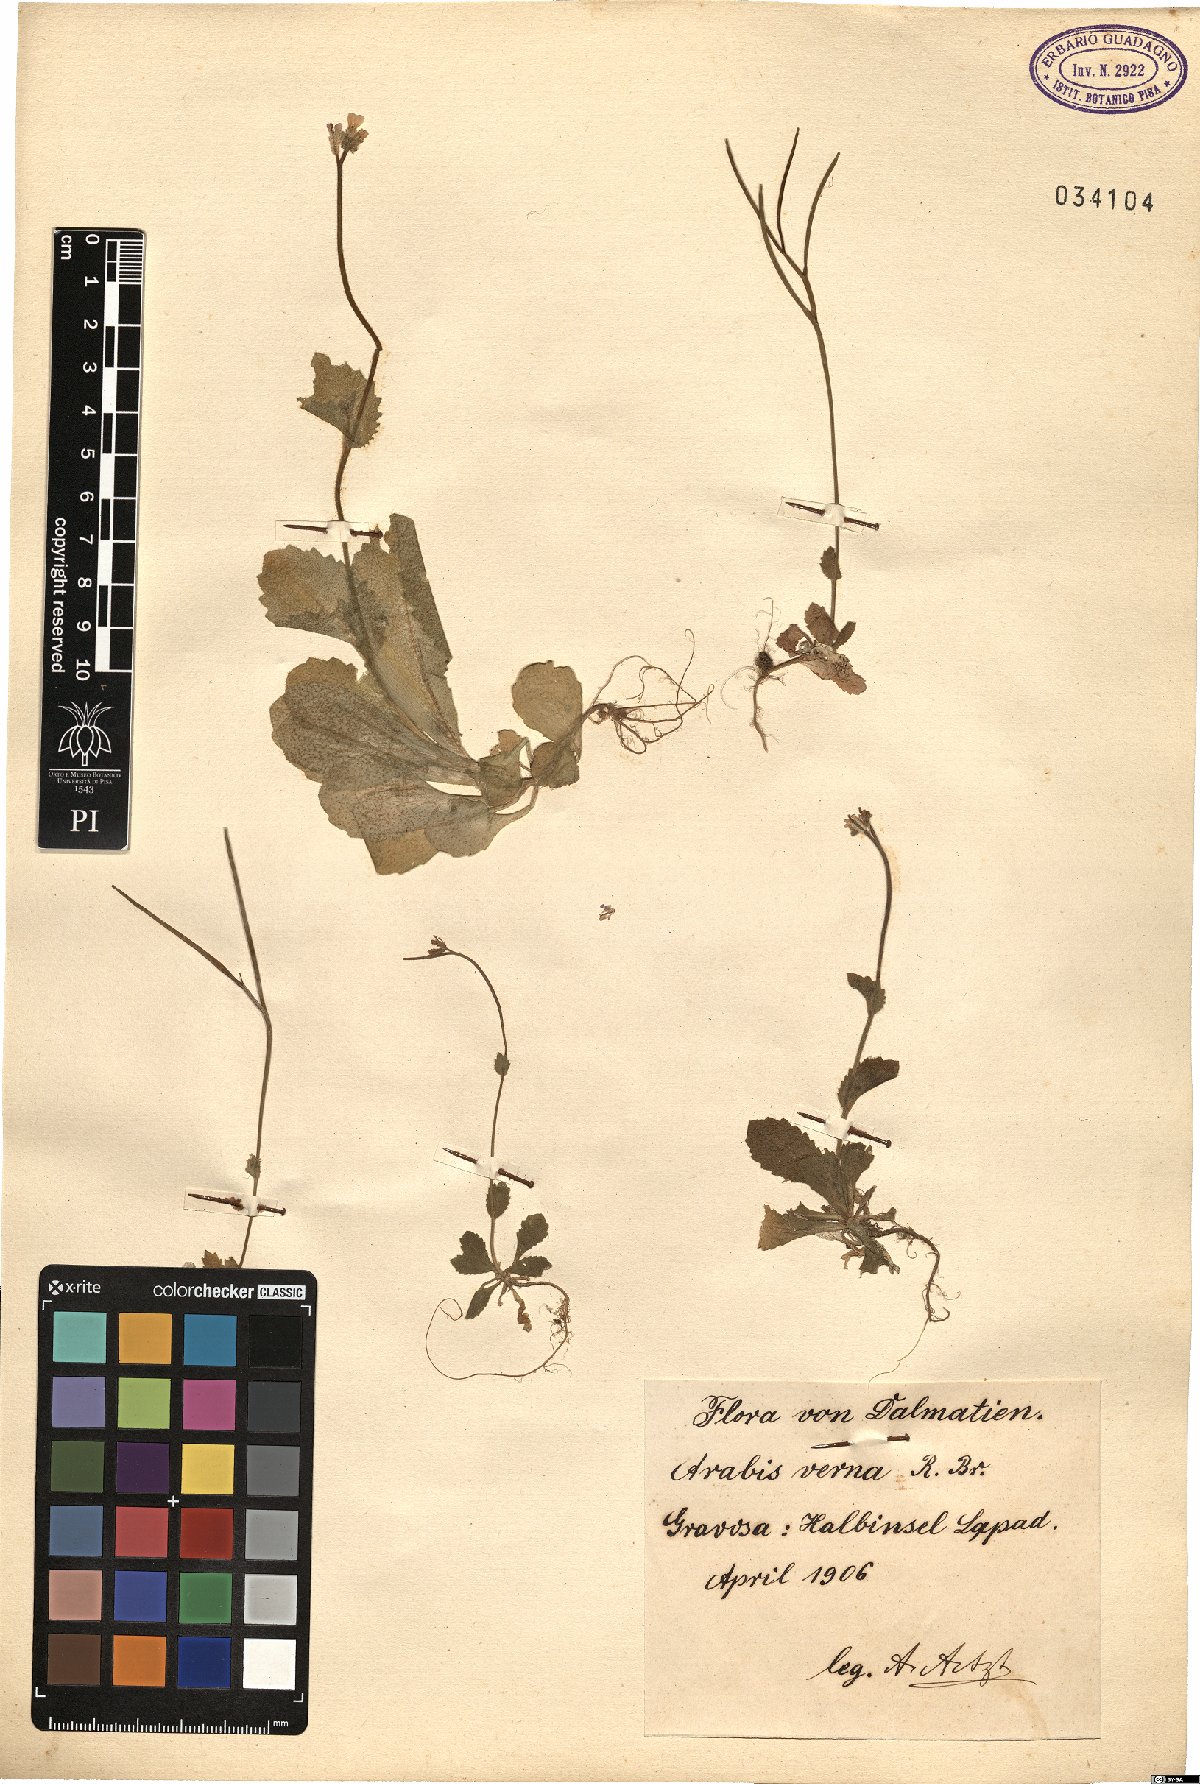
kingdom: Plantae
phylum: Tracheophyta
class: Magnoliopsida
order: Brassicales
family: Brassicaceae
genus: Arabis
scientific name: Arabis verna
